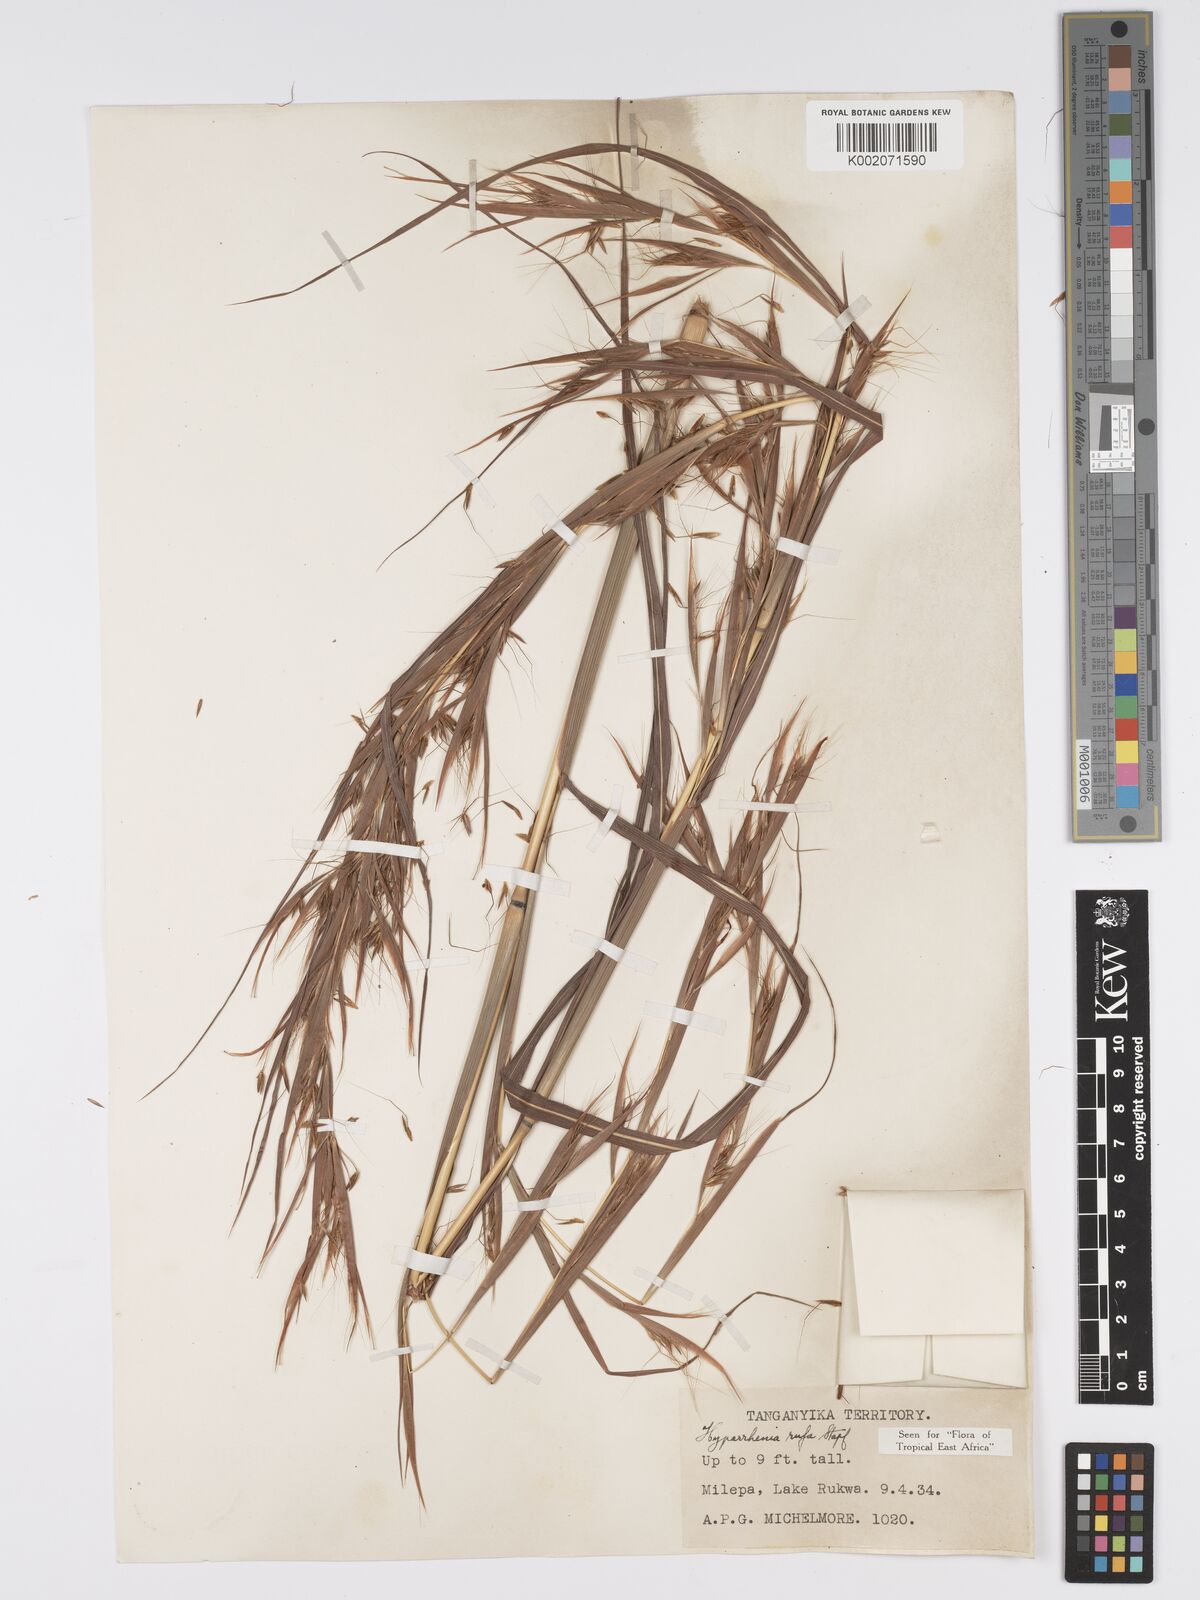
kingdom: Plantae
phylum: Tracheophyta
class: Liliopsida
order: Poales
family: Poaceae
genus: Hyparrhenia
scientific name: Hyparrhenia rufa
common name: Jaraguagrass
